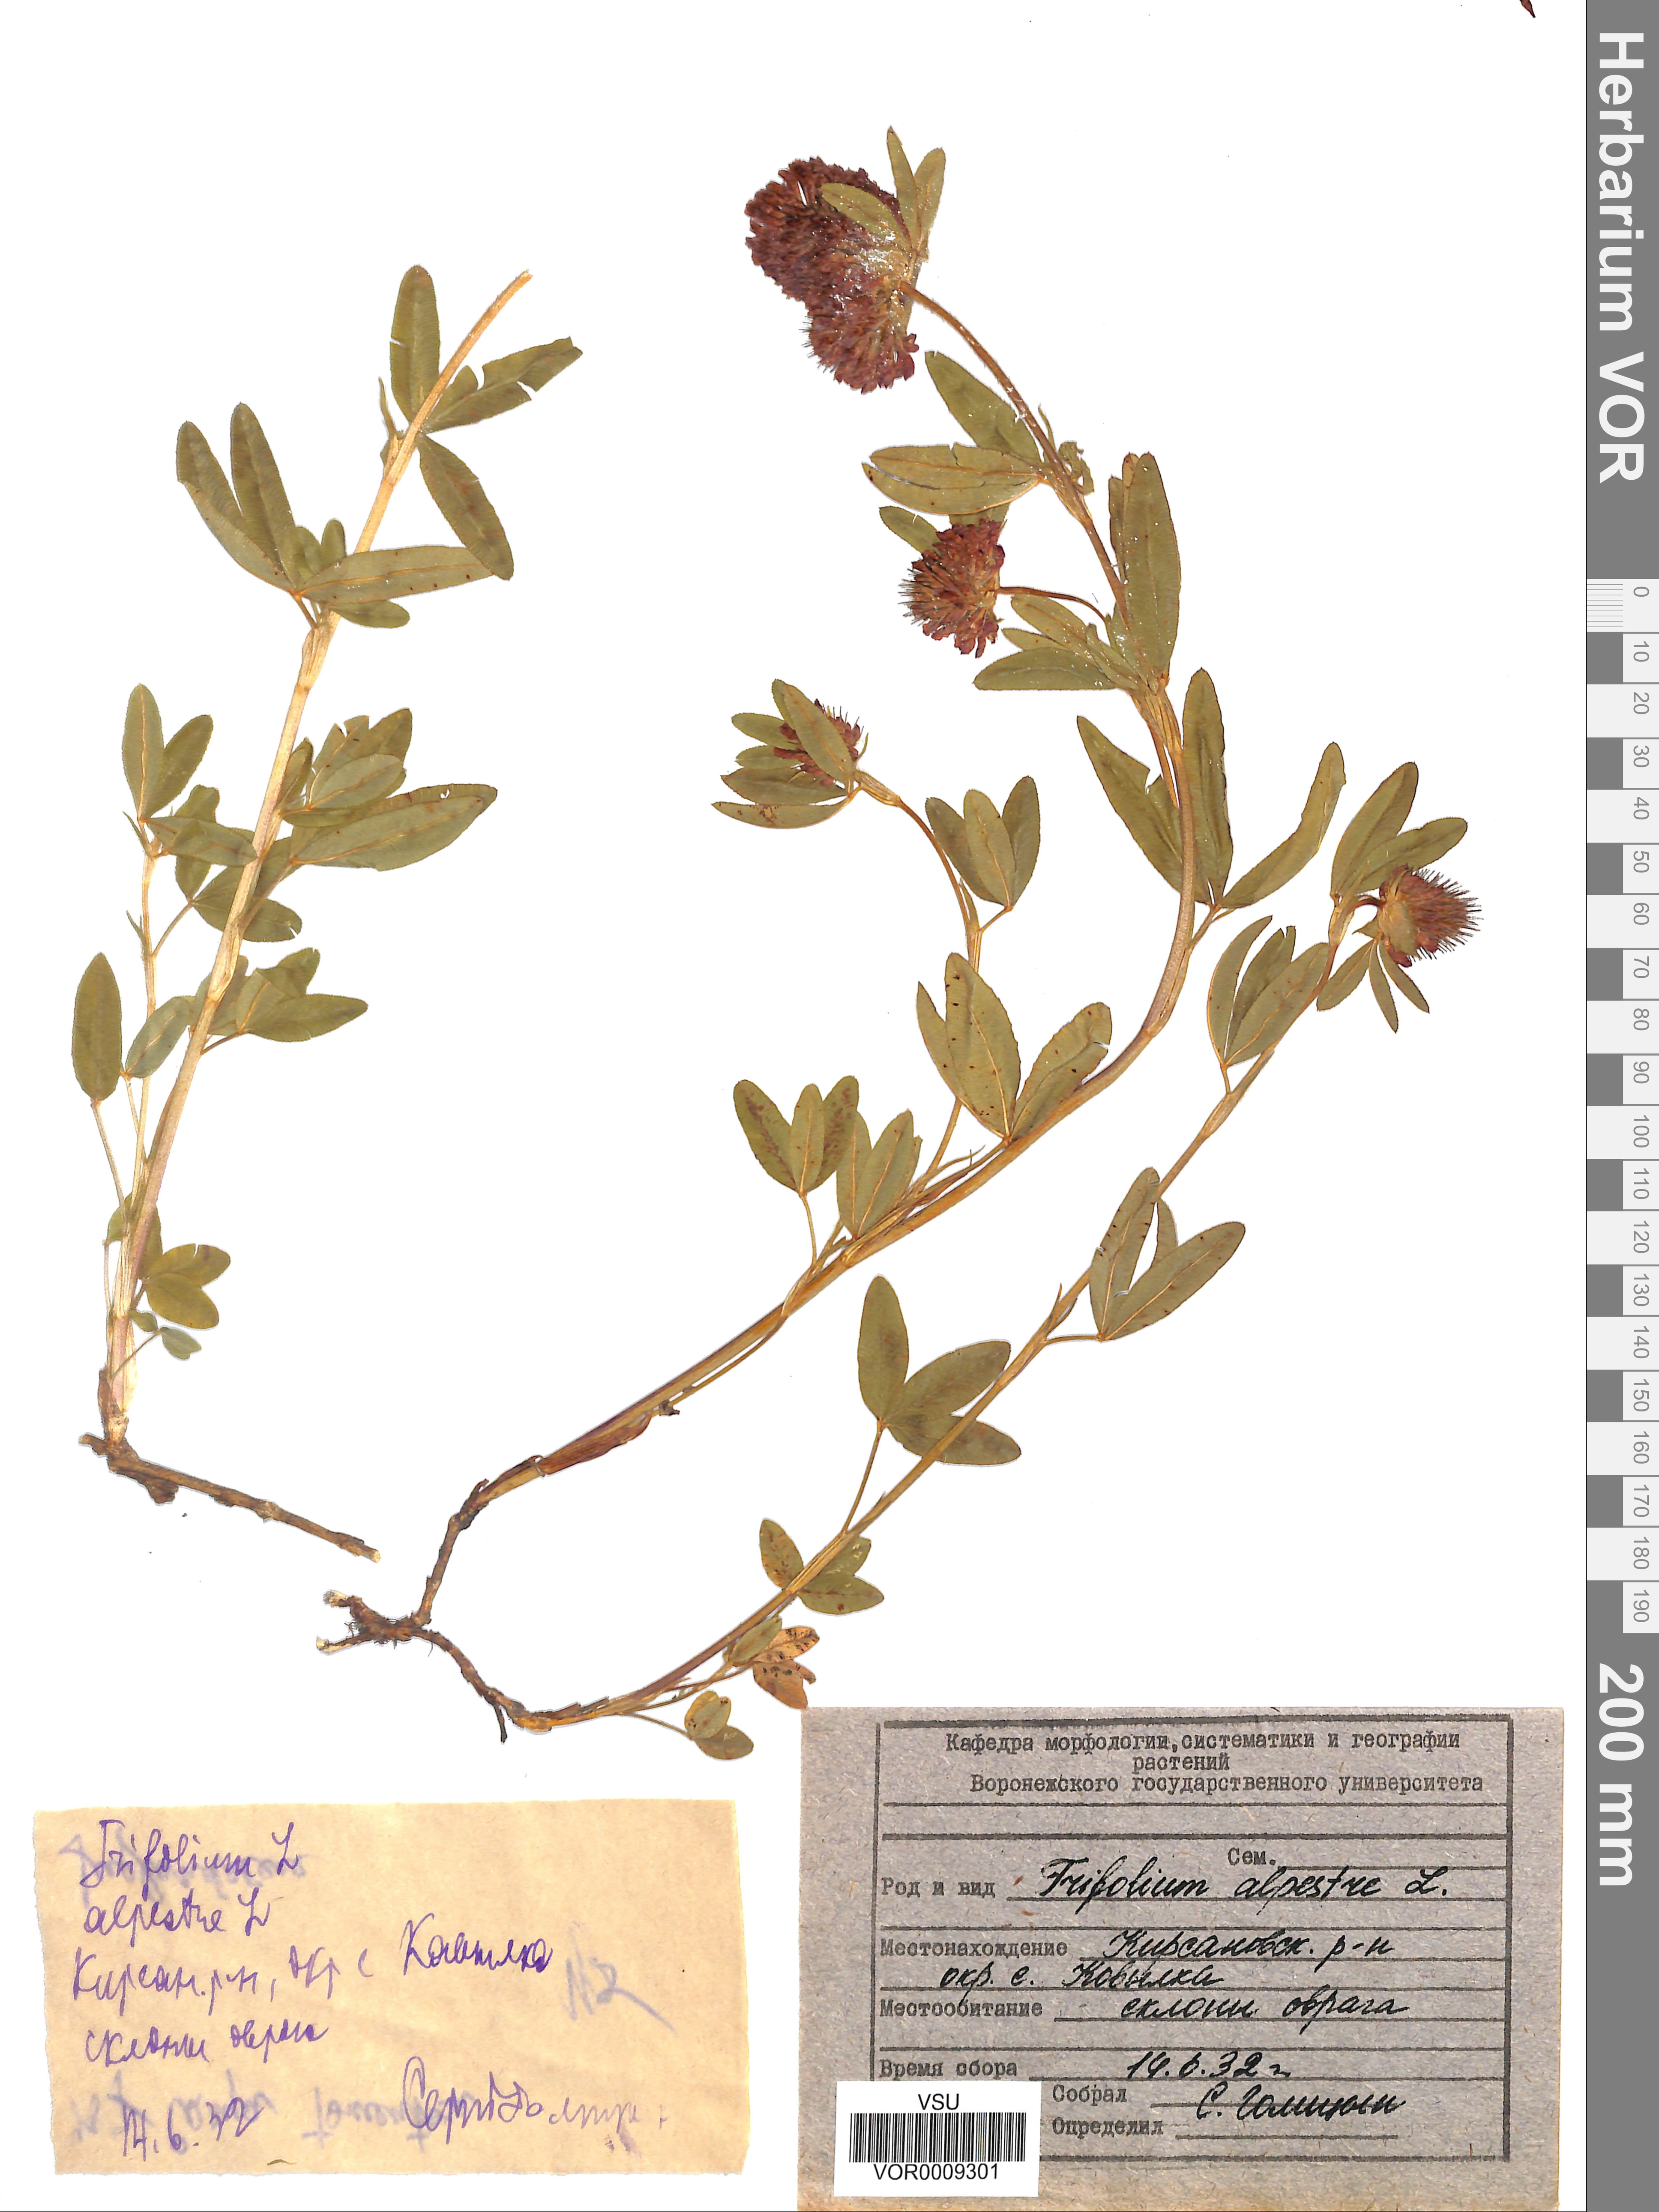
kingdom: Plantae
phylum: Tracheophyta
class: Magnoliopsida
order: Fabales
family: Fabaceae
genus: Trifolium
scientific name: Trifolium alpestre
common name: Owl-head clover
